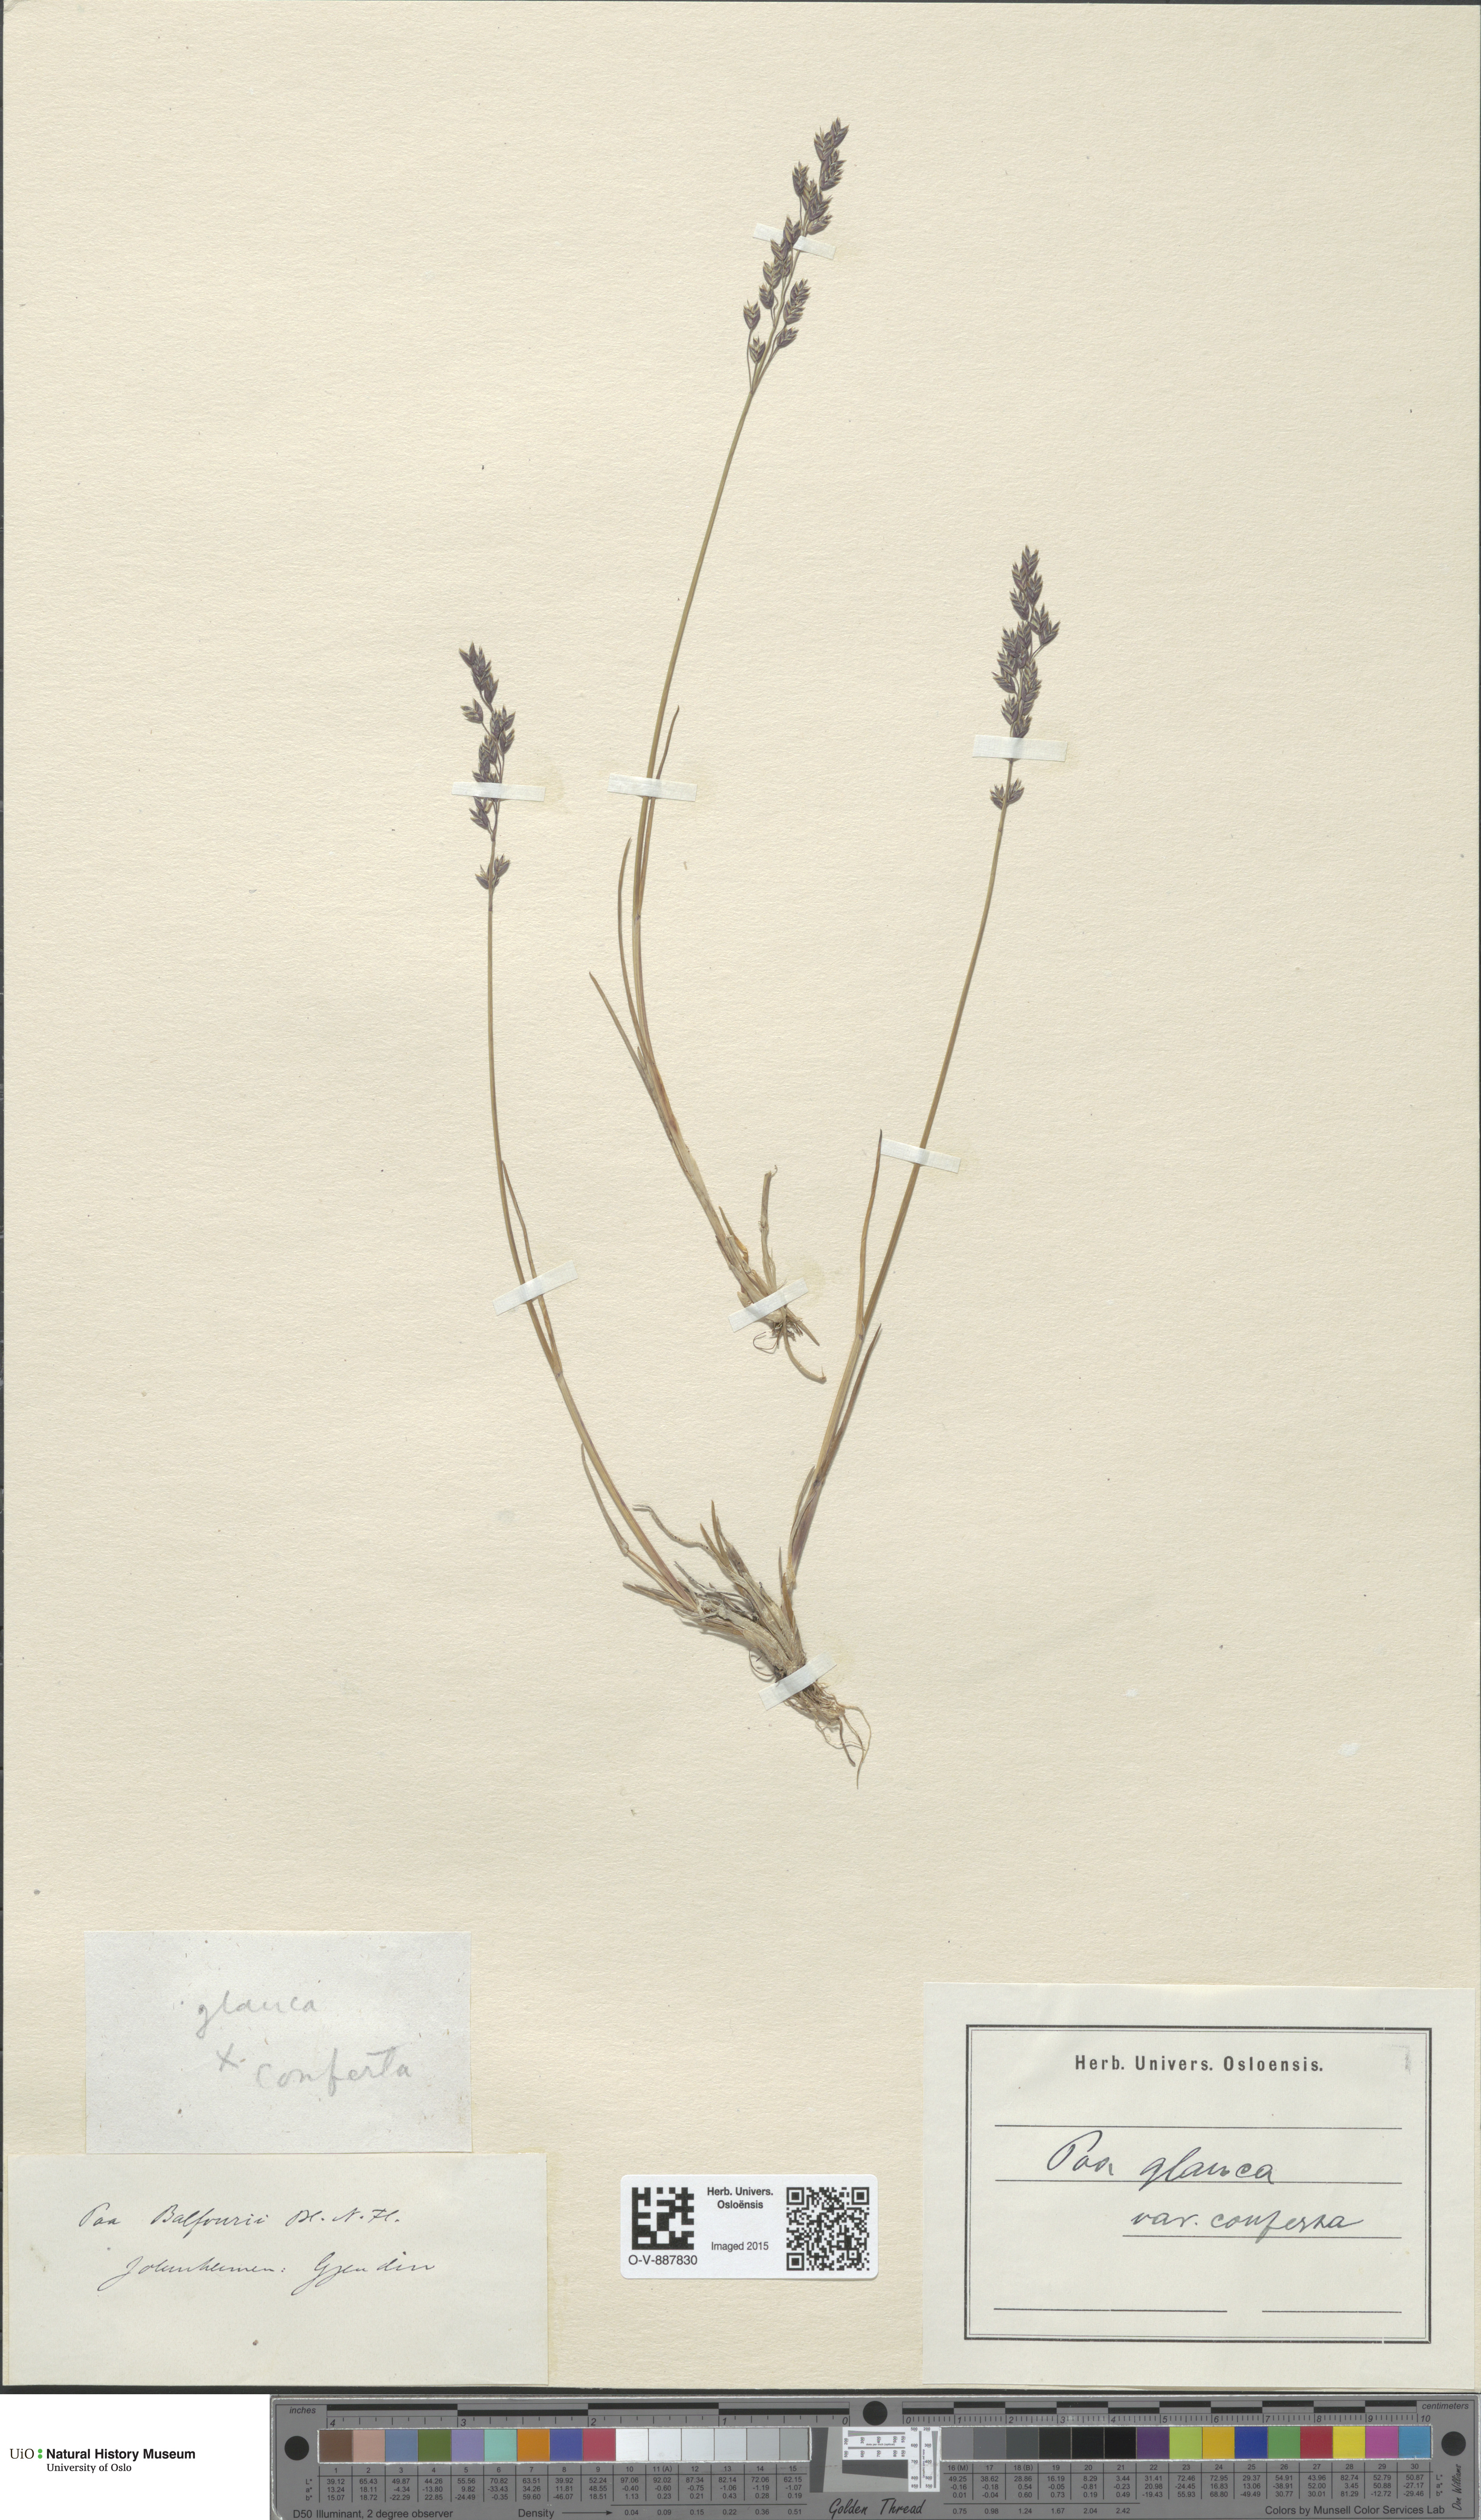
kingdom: Plantae
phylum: Tracheophyta
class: Liliopsida
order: Poales
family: Poaceae
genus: Poa
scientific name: Poa glauca
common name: Glaucous bluegrass
